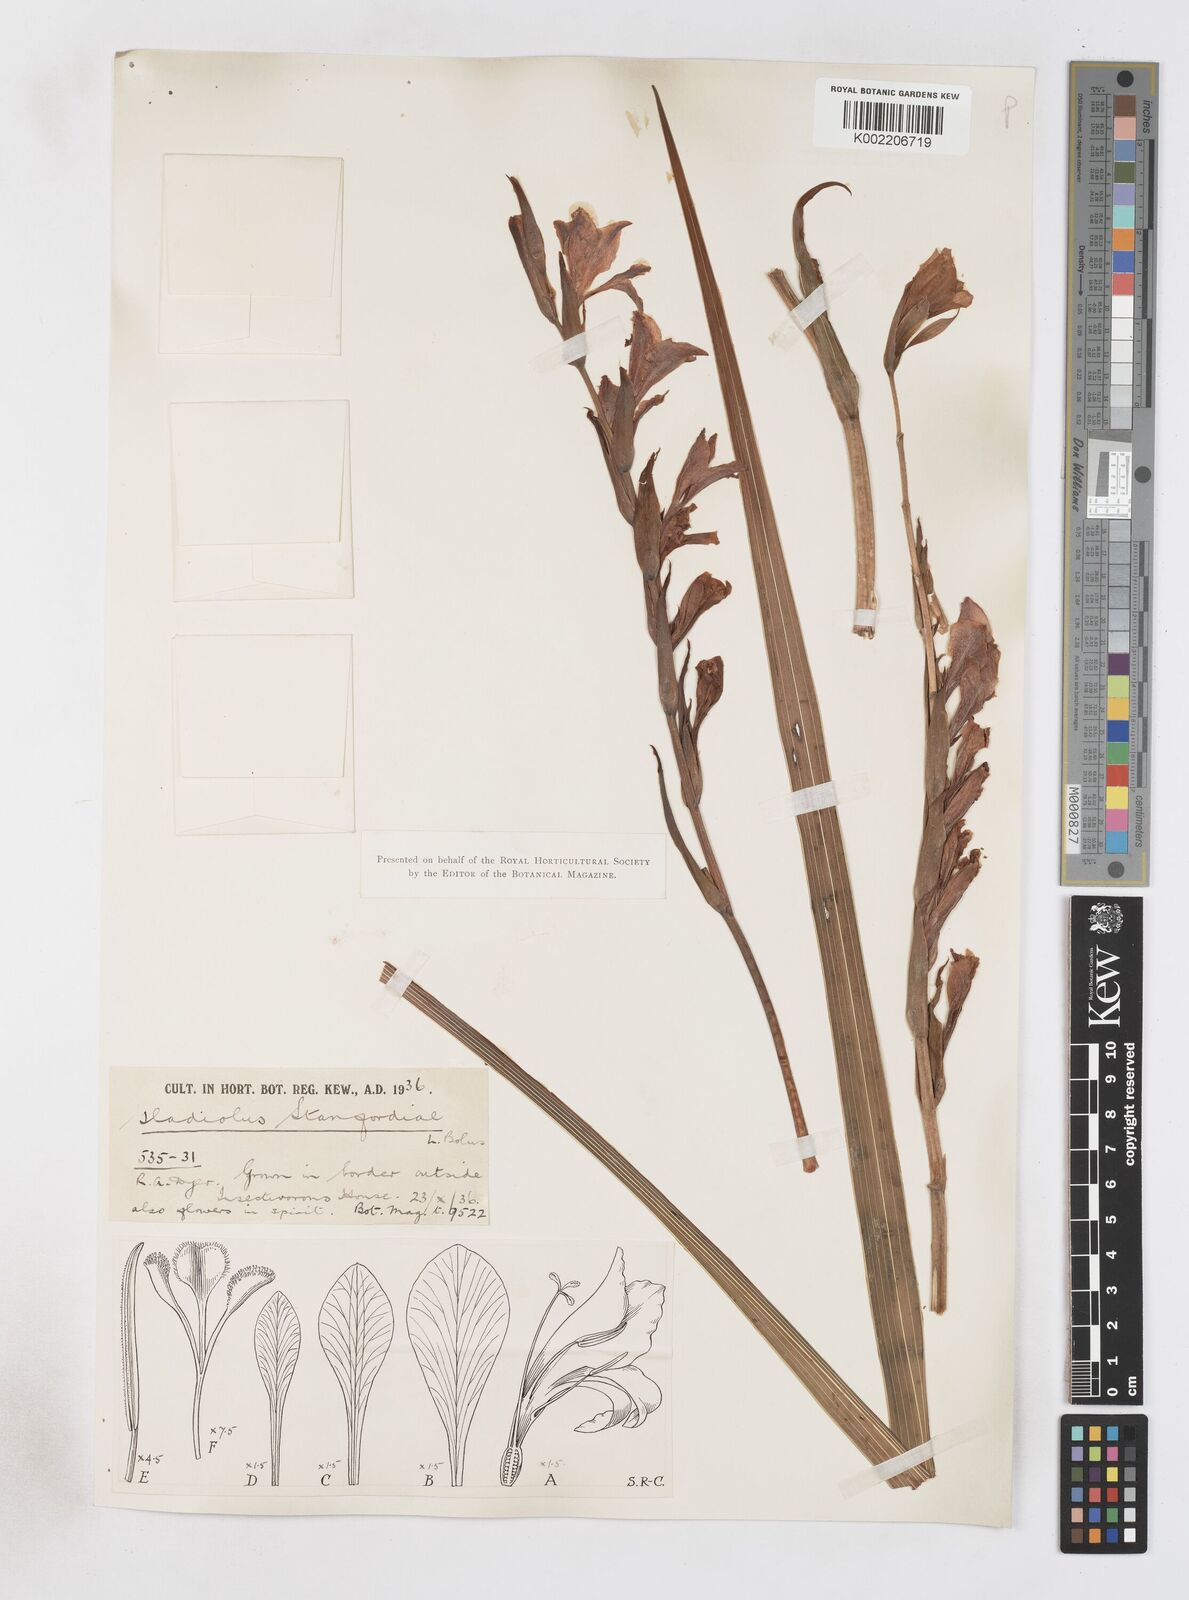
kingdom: Plantae
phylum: Tracheophyta
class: Liliopsida
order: Asparagales
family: Iridaceae
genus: Gladiolus
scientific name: Gladiolus ochroleucus
